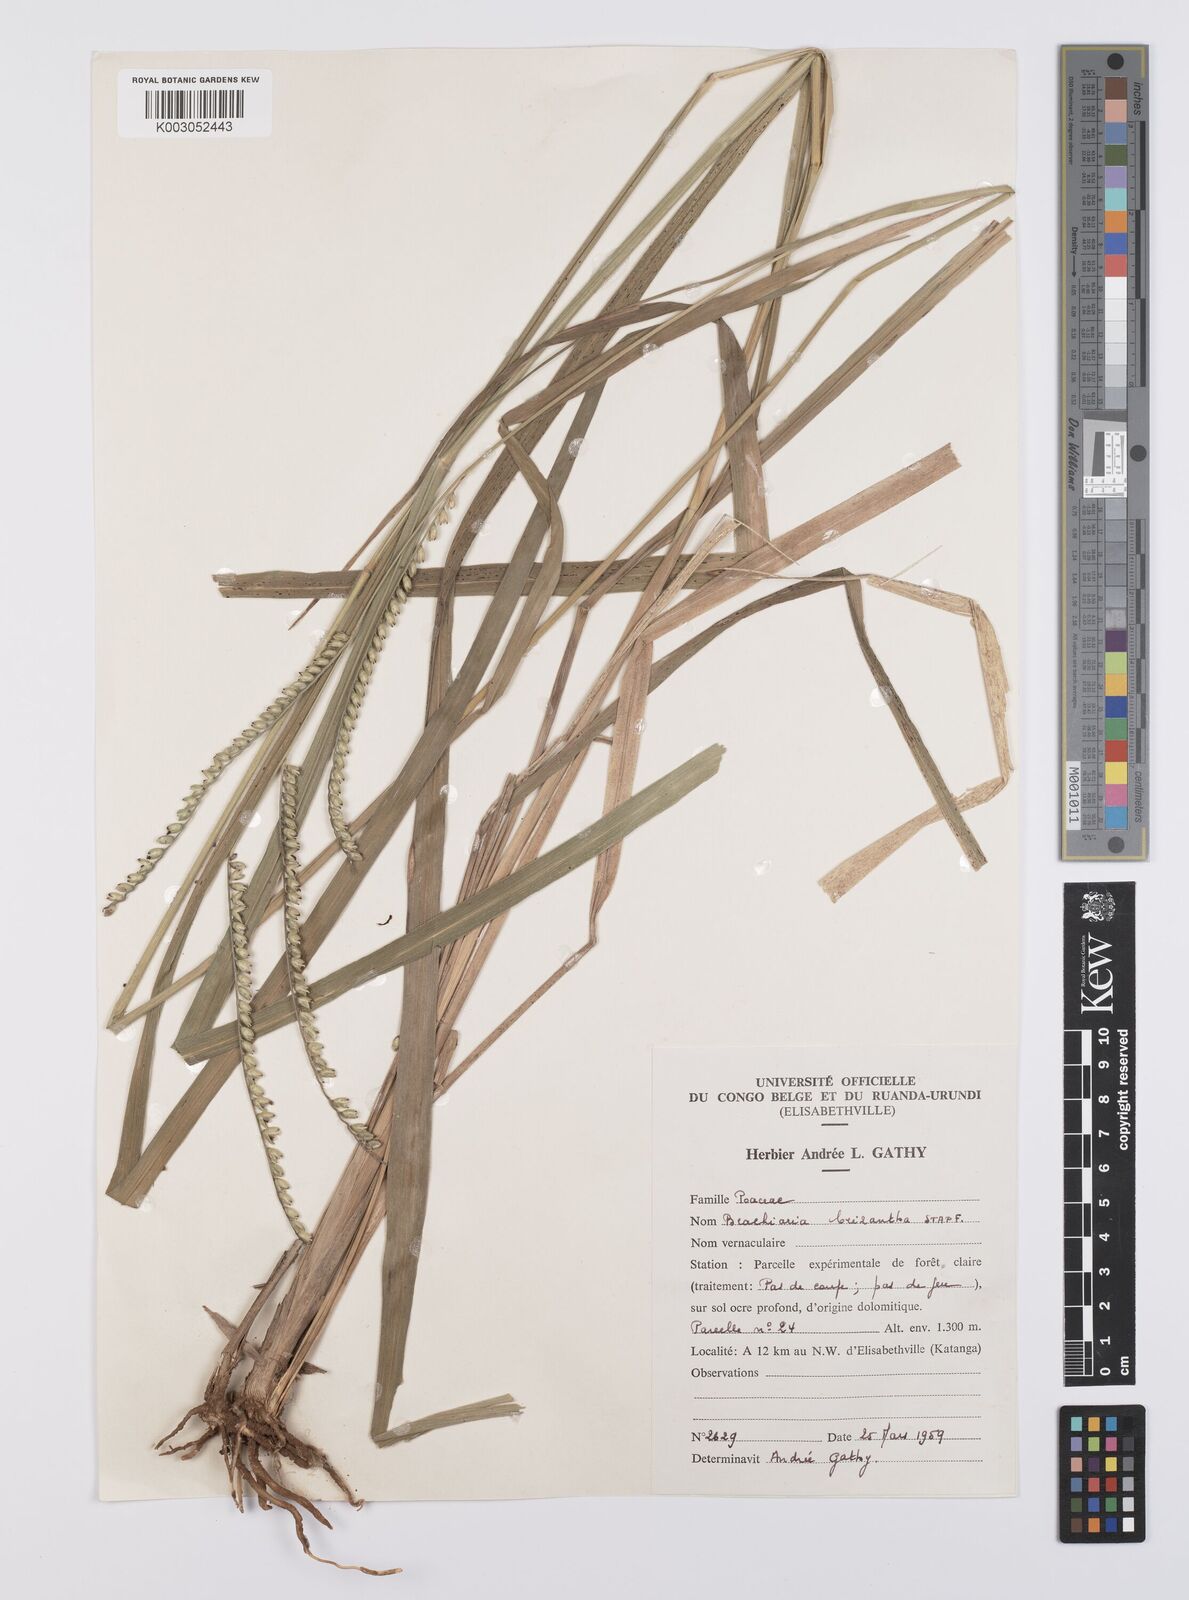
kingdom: Plantae
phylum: Tracheophyta
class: Liliopsida
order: Poales
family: Poaceae
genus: Urochloa
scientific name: Urochloa brizantha
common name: Palisade signalgrass
